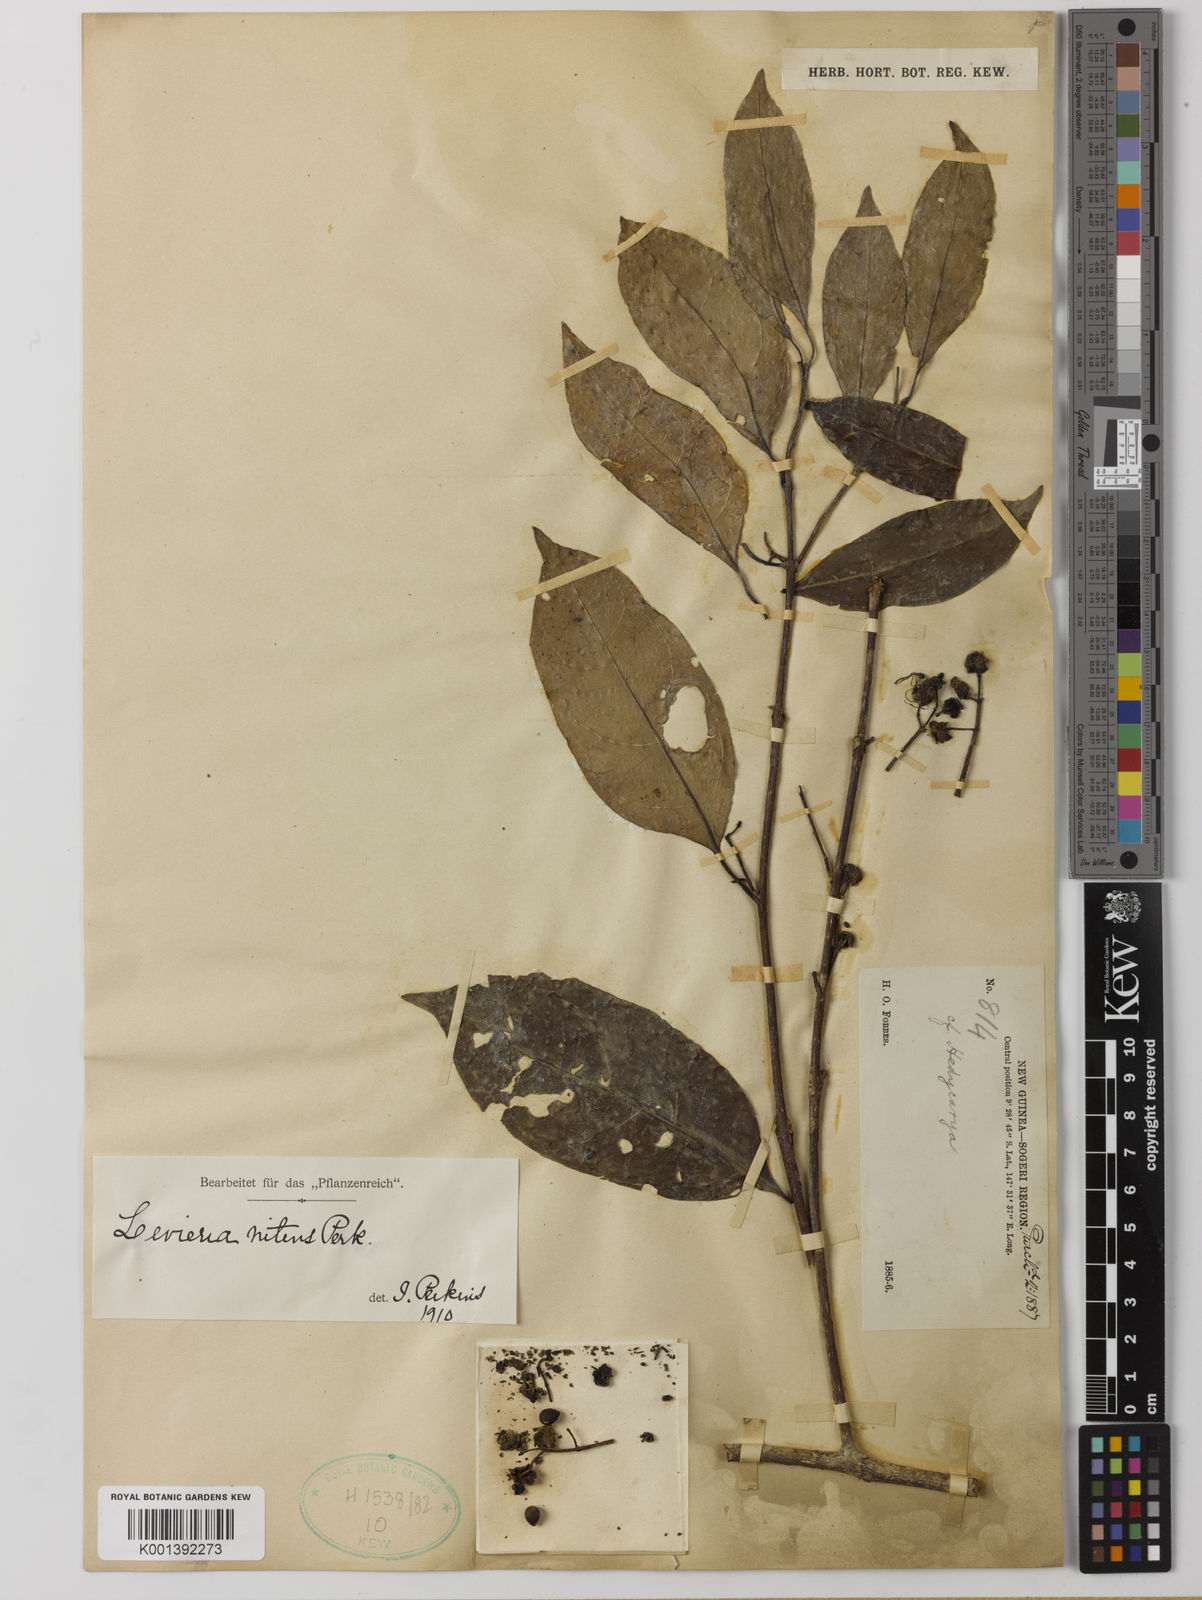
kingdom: Plantae
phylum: Tracheophyta
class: Magnoliopsida
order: Laurales
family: Monimiaceae
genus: Levieria
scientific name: Levieria nitens
